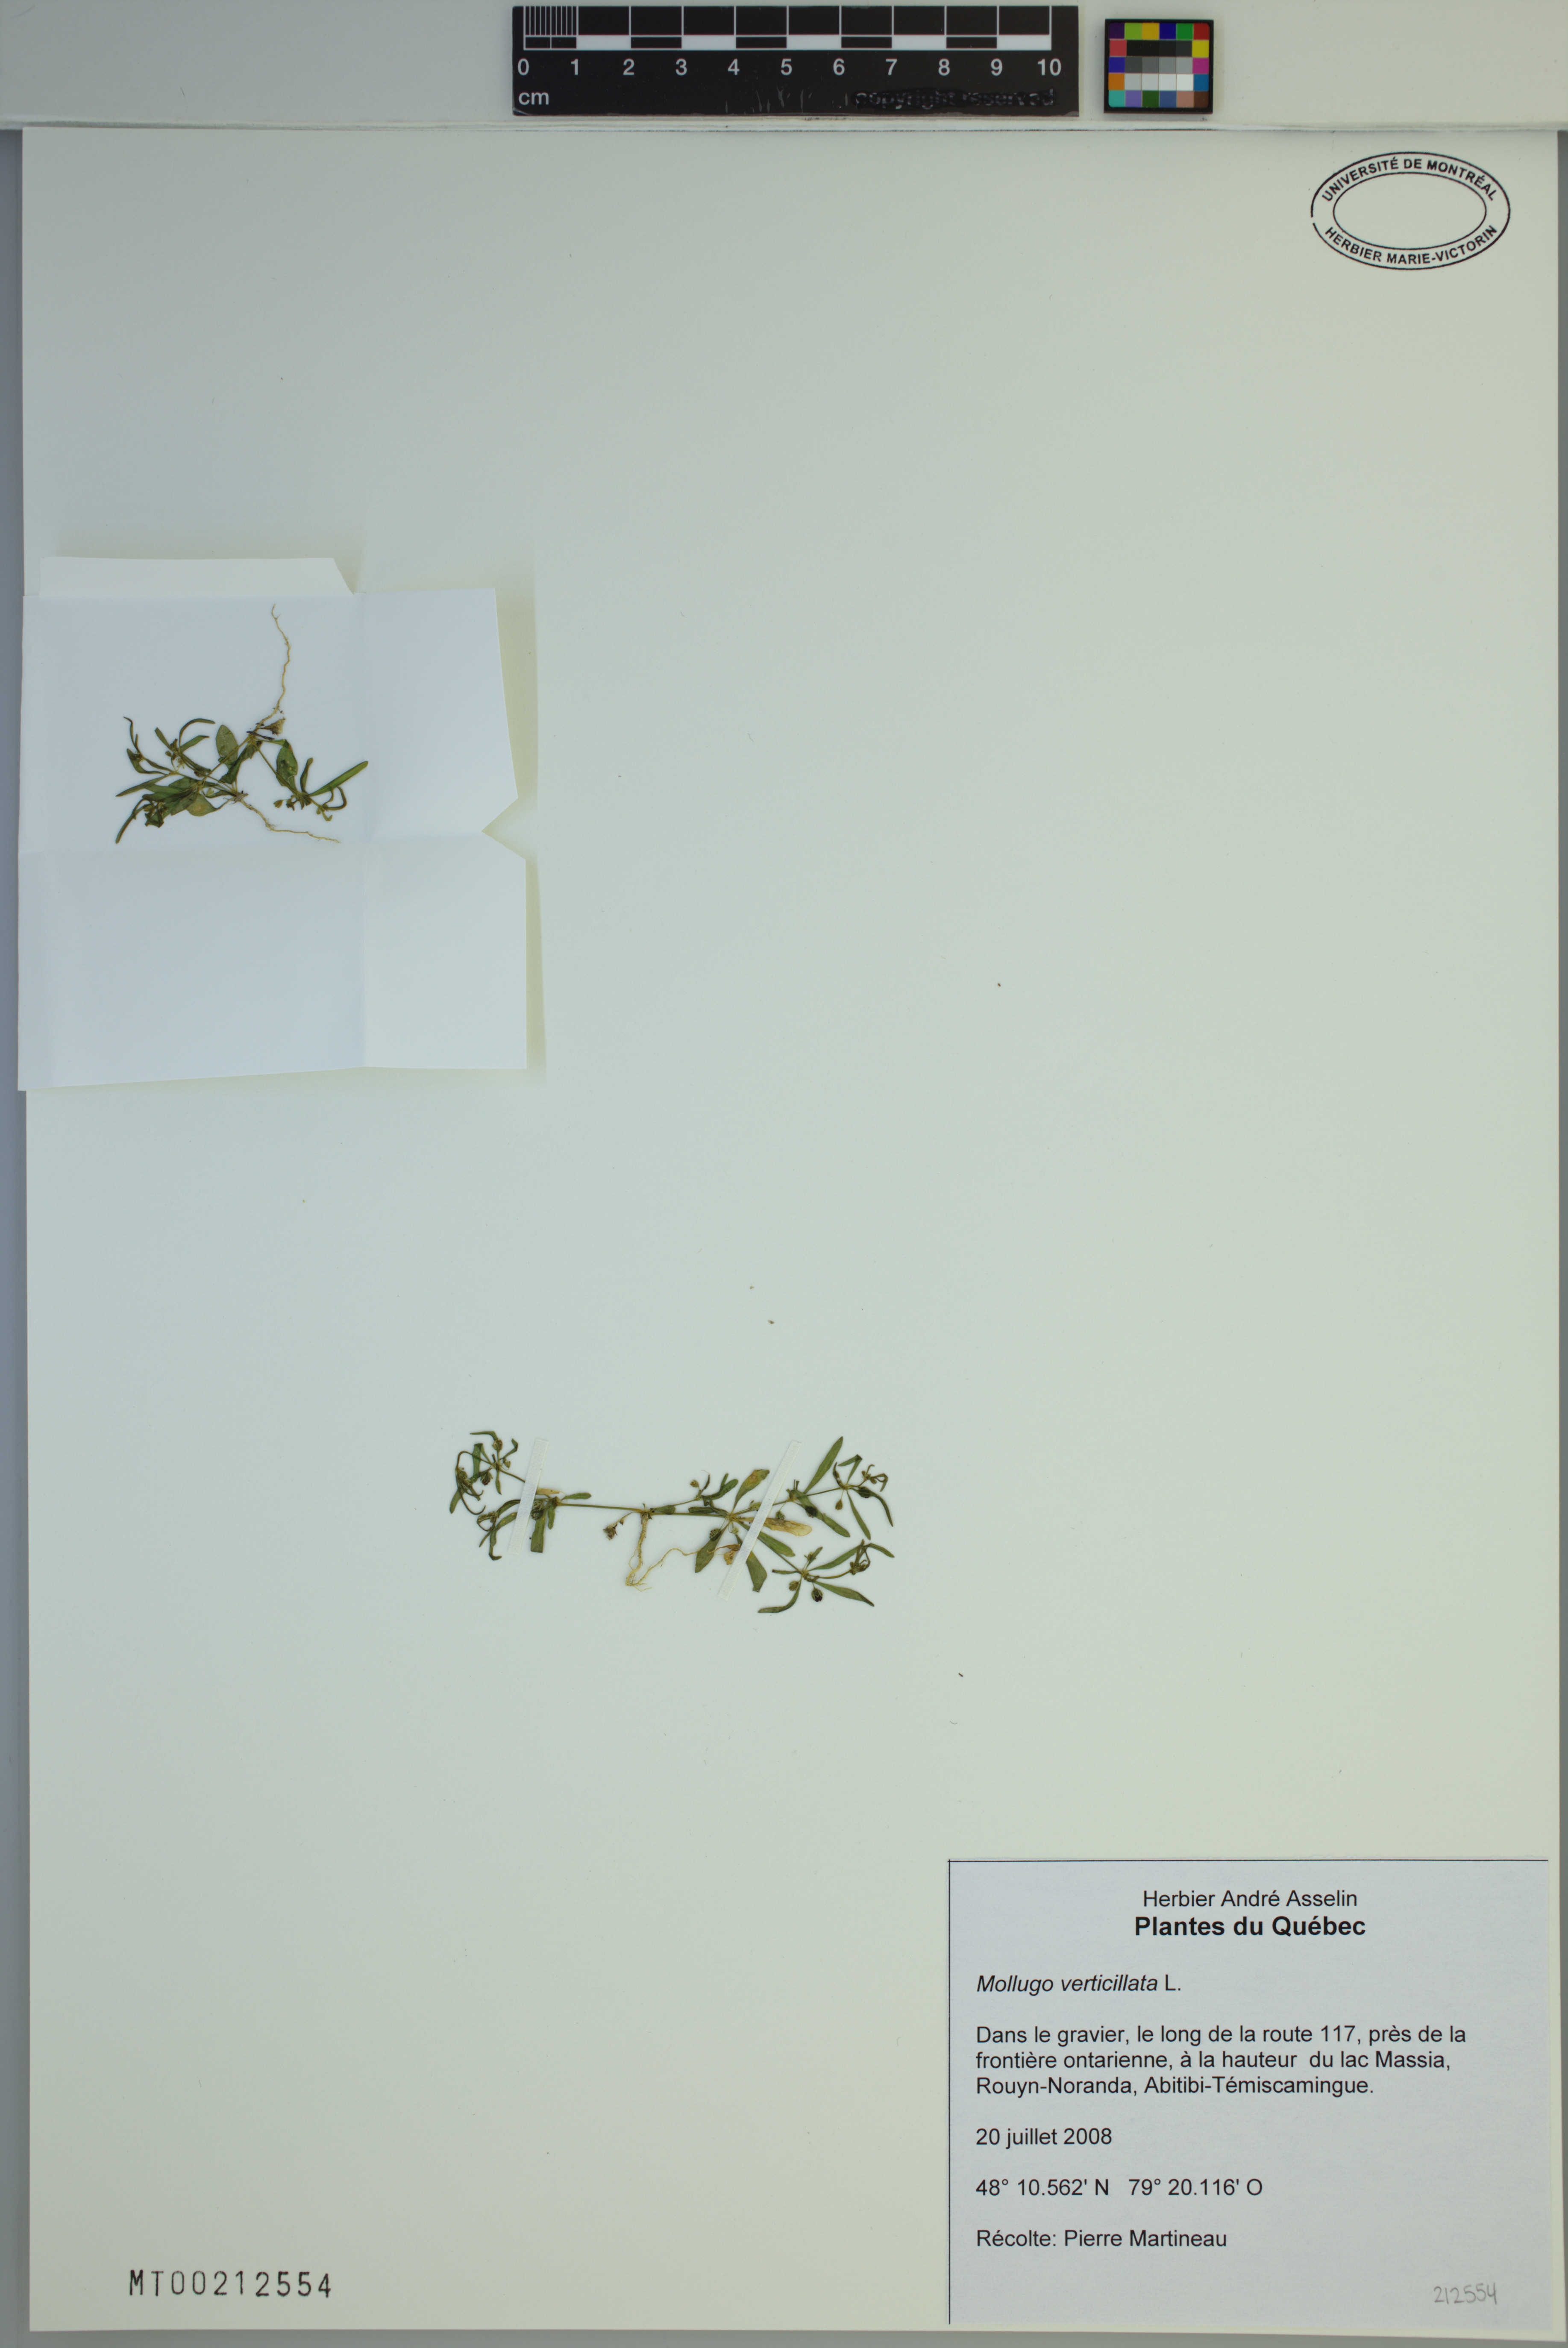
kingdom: Plantae
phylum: Tracheophyta
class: Magnoliopsida
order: Caryophyllales
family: Molluginaceae
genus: Mollugo
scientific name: Mollugo verticillata
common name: Green carpetweed
